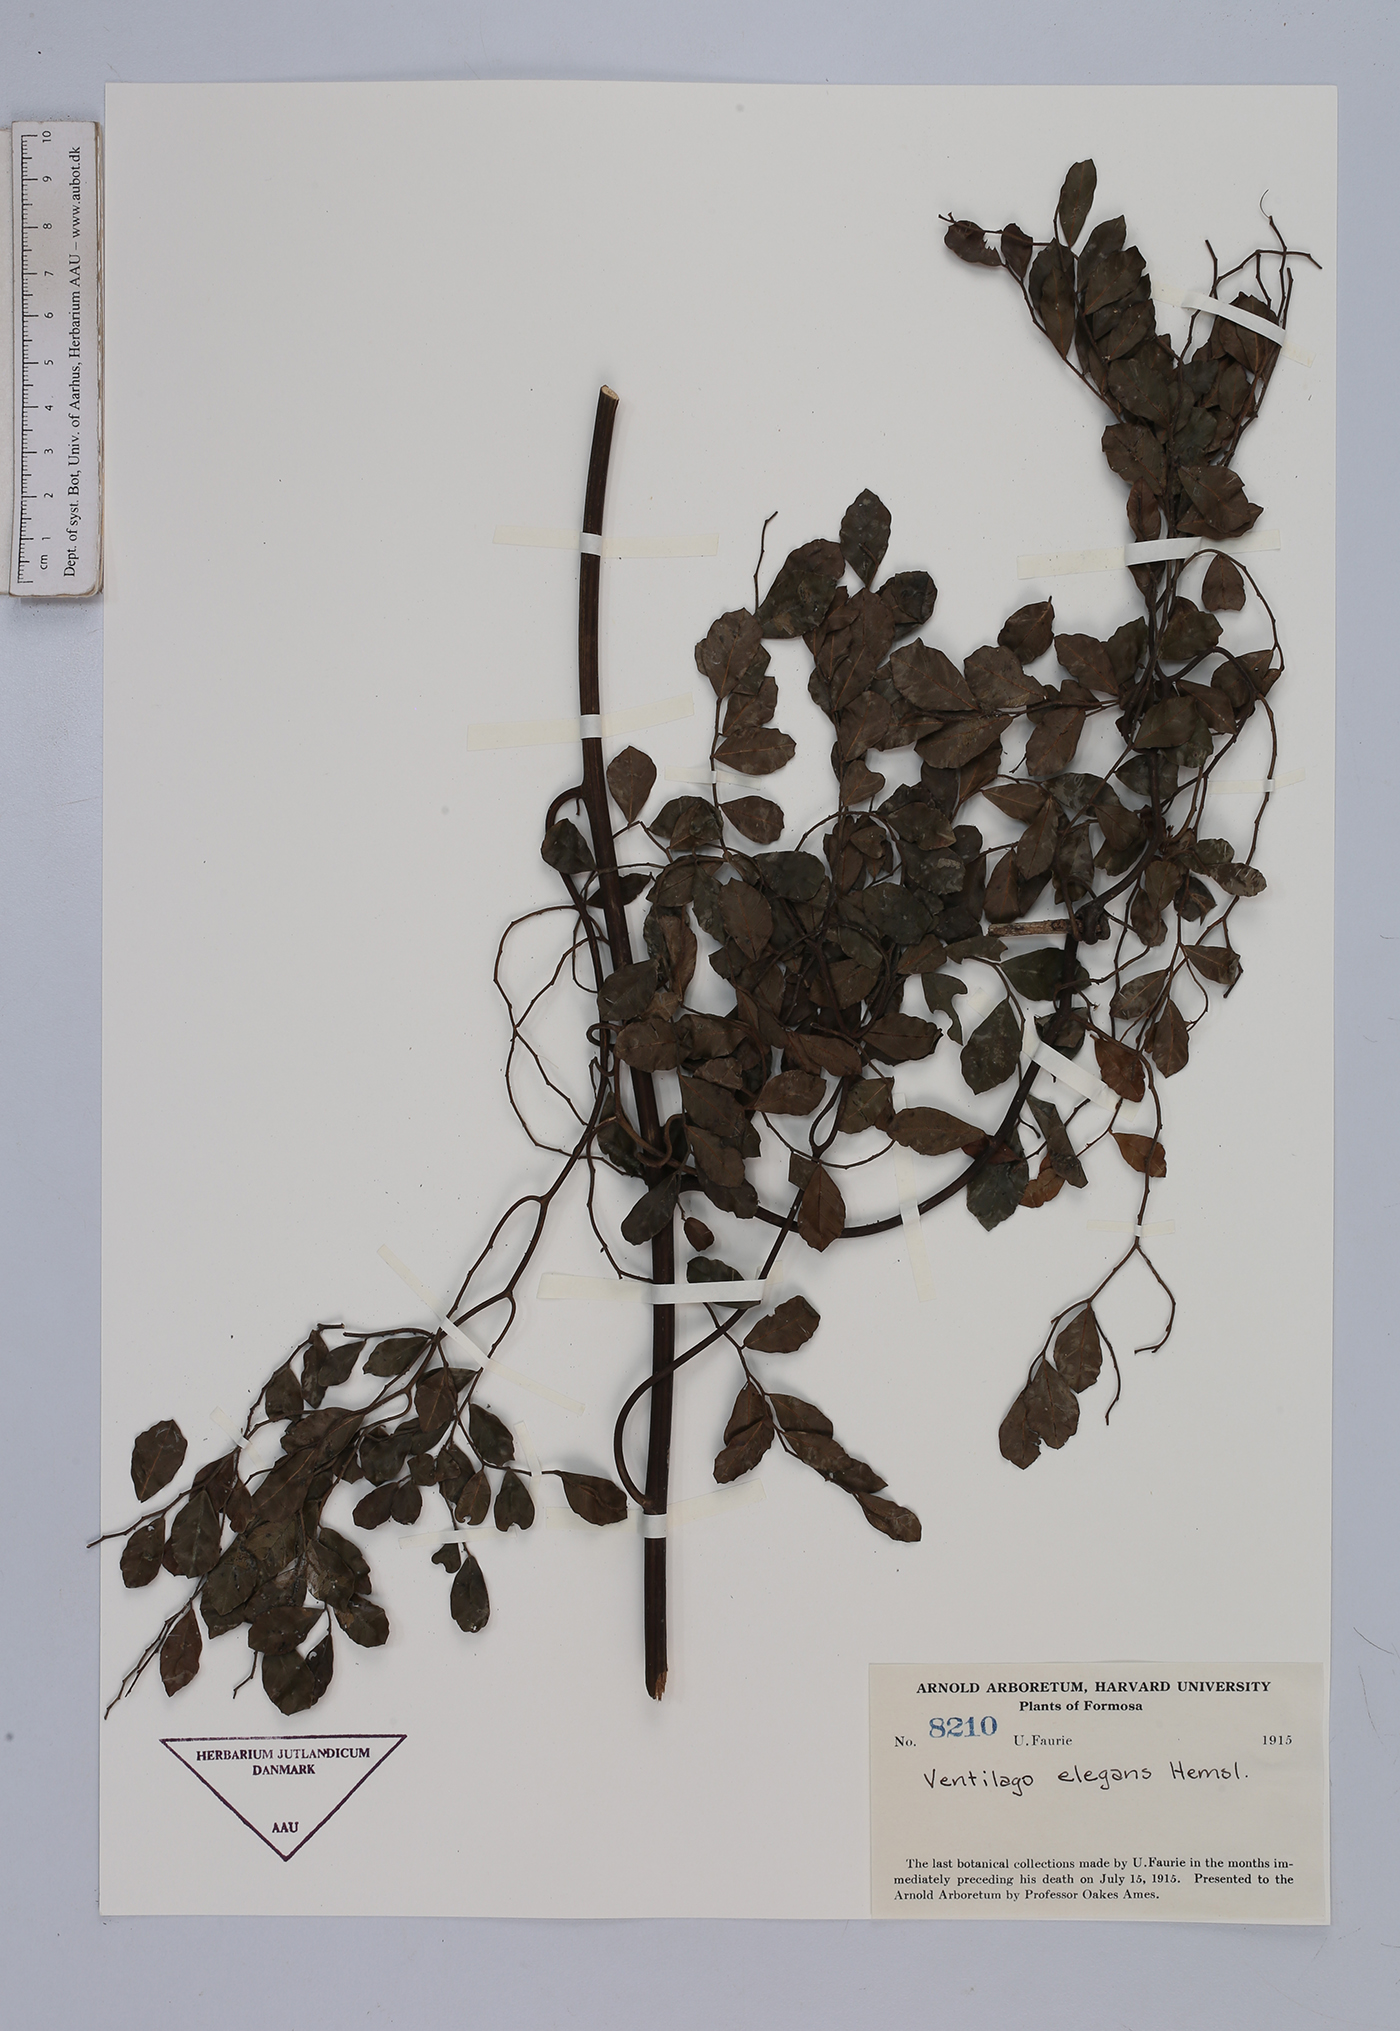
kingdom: Plantae
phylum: Tracheophyta
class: Magnoliopsida
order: Rosales
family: Rhamnaceae
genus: Ventilago
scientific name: Ventilago elegans
